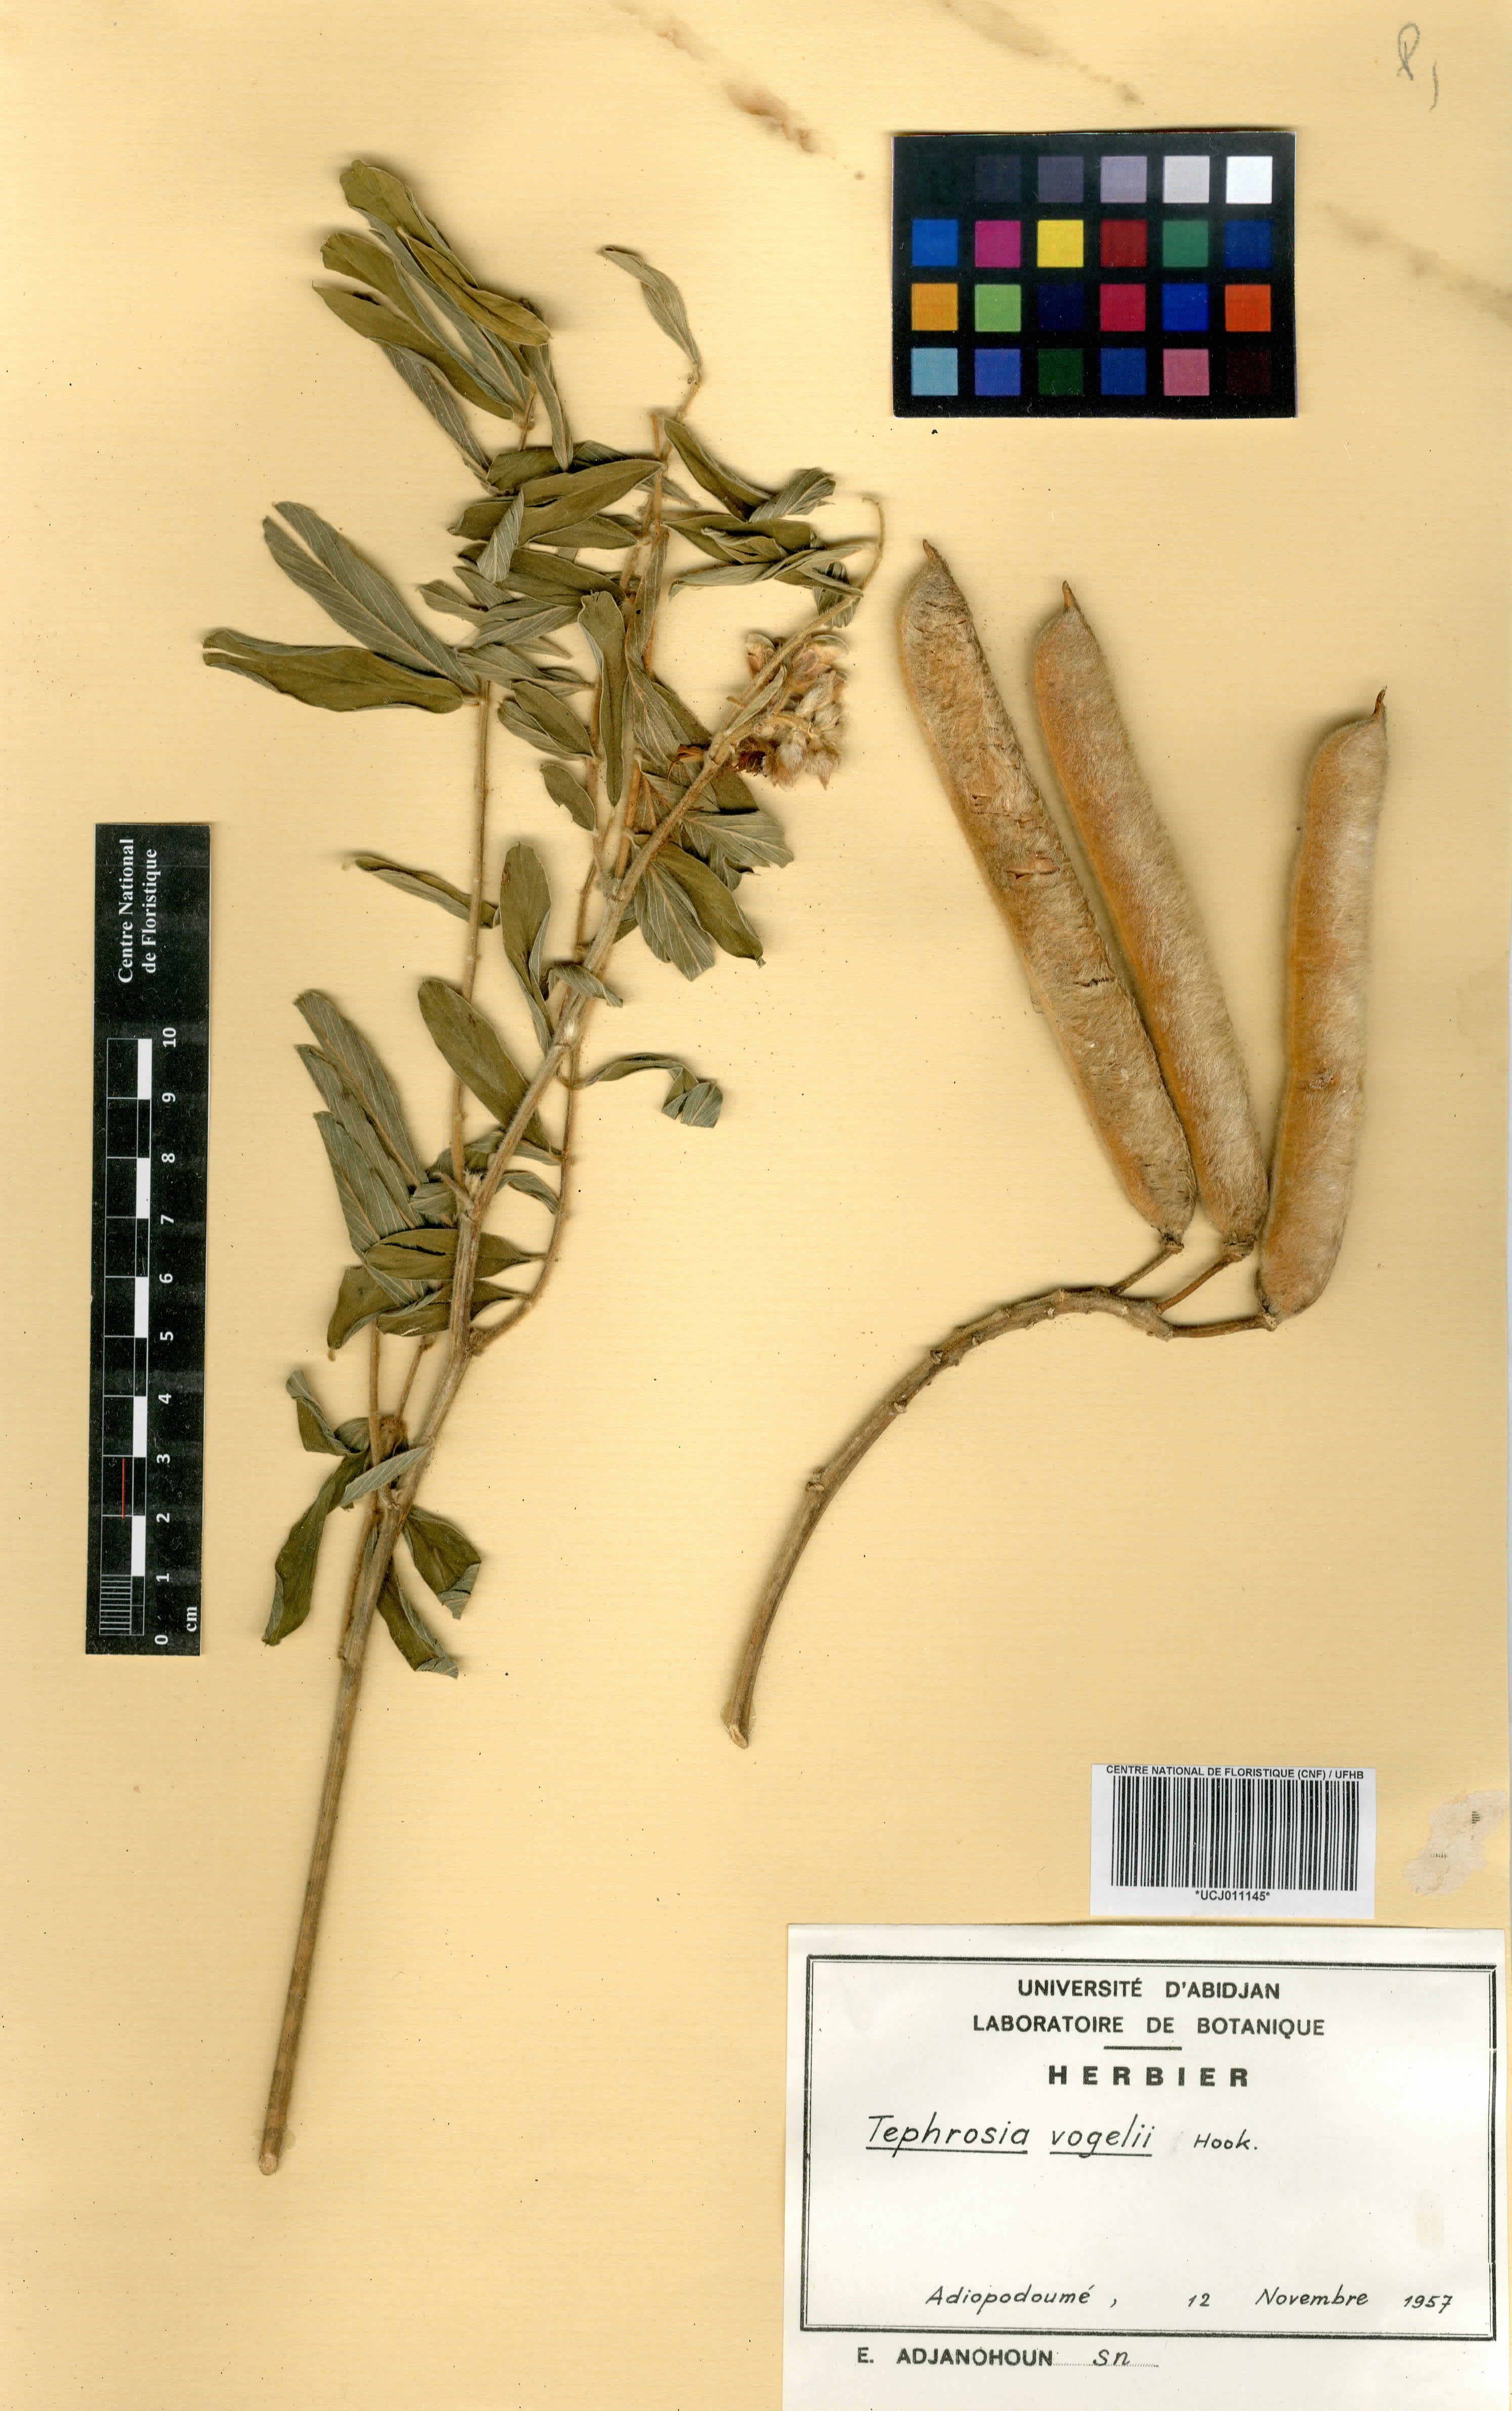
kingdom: Plantae
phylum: Tracheophyta
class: Magnoliopsida
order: Fabales
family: Fabaceae
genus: Tephrosia
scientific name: Tephrosia vogelii
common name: Vogel tephrosia
